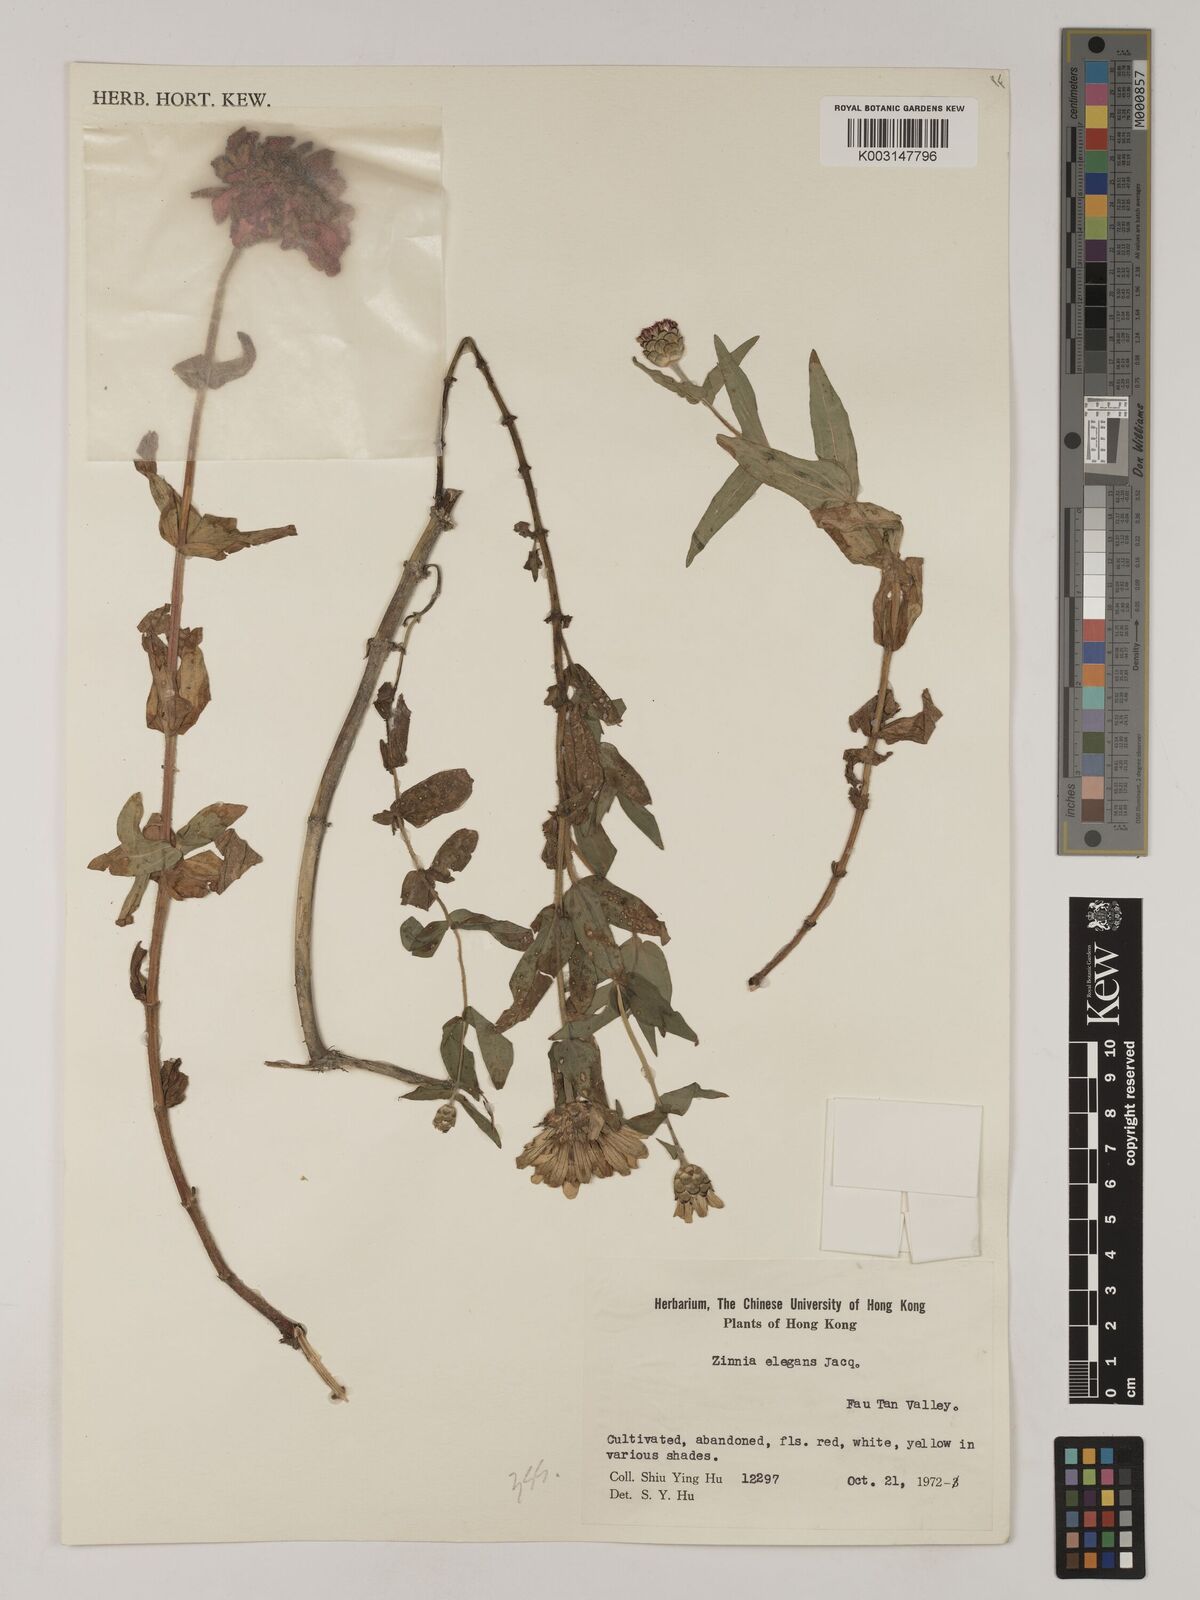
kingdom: Plantae
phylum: Tracheophyta
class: Magnoliopsida
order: Asterales
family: Asteraceae
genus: Zinnia
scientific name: Zinnia elegans
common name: Youth-and-age
